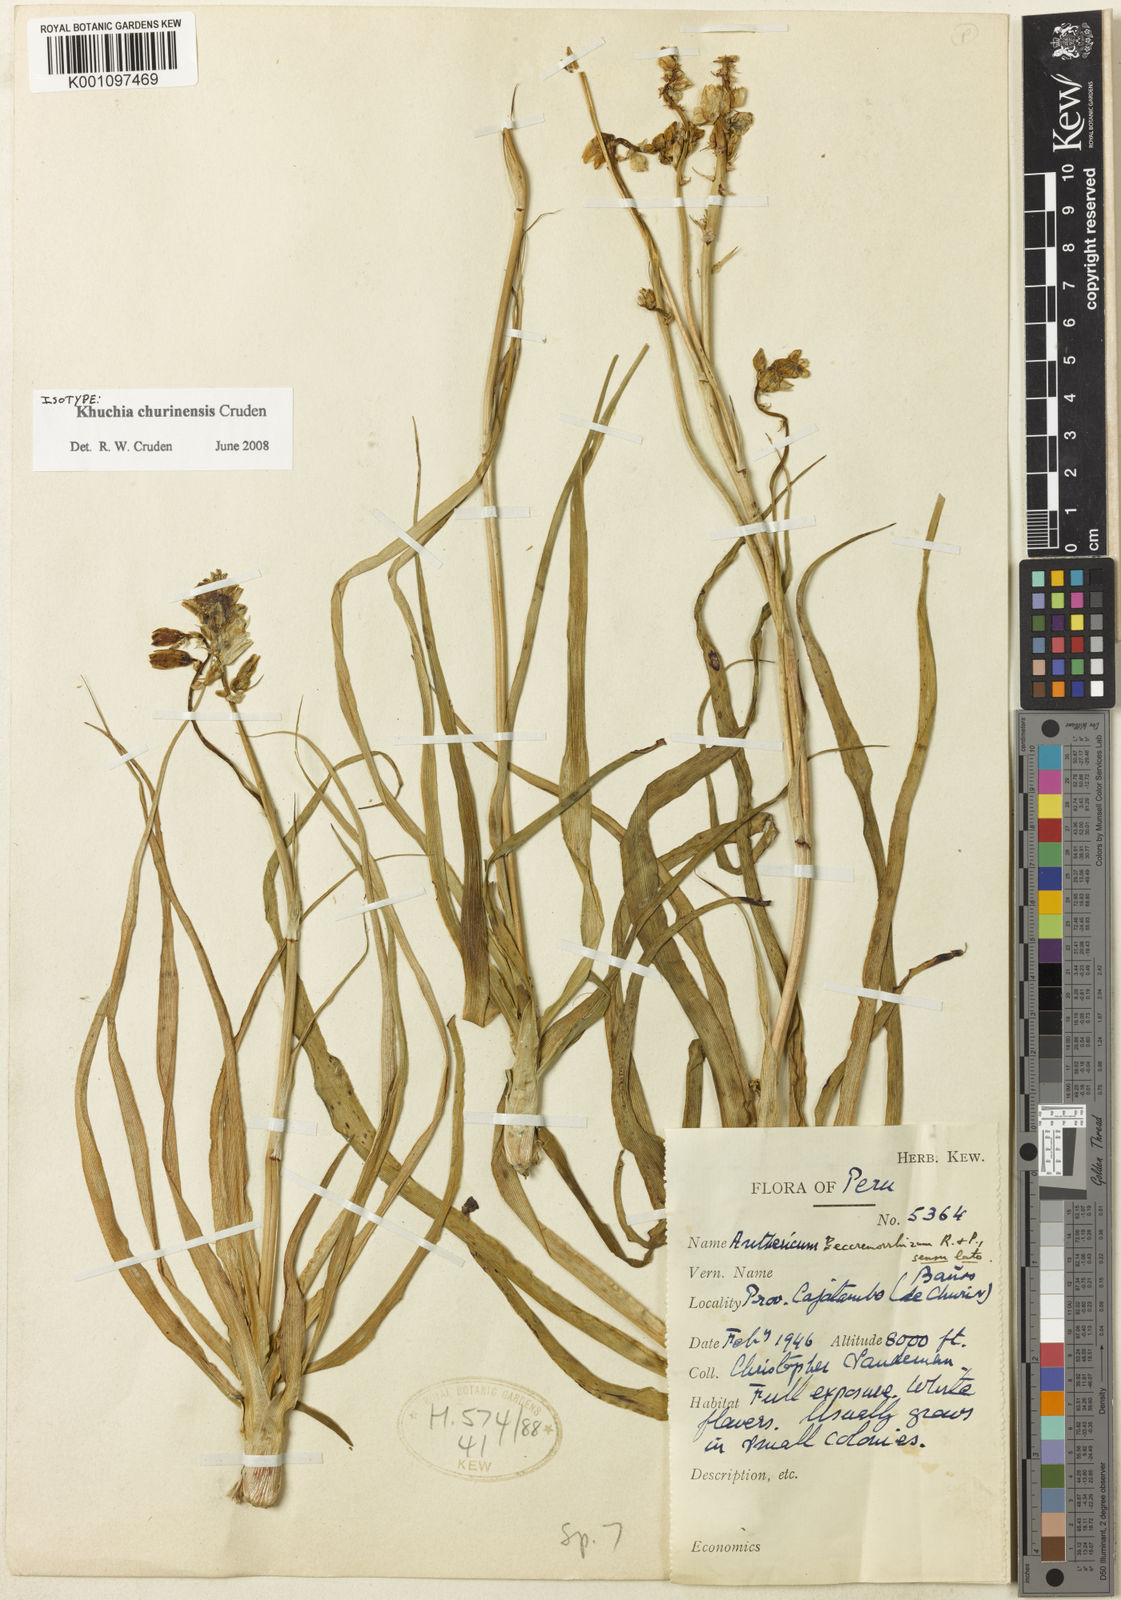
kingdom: Plantae
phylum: Tracheophyta
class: Liliopsida
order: Asparagales
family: Asparagaceae
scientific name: Asparagaceae
